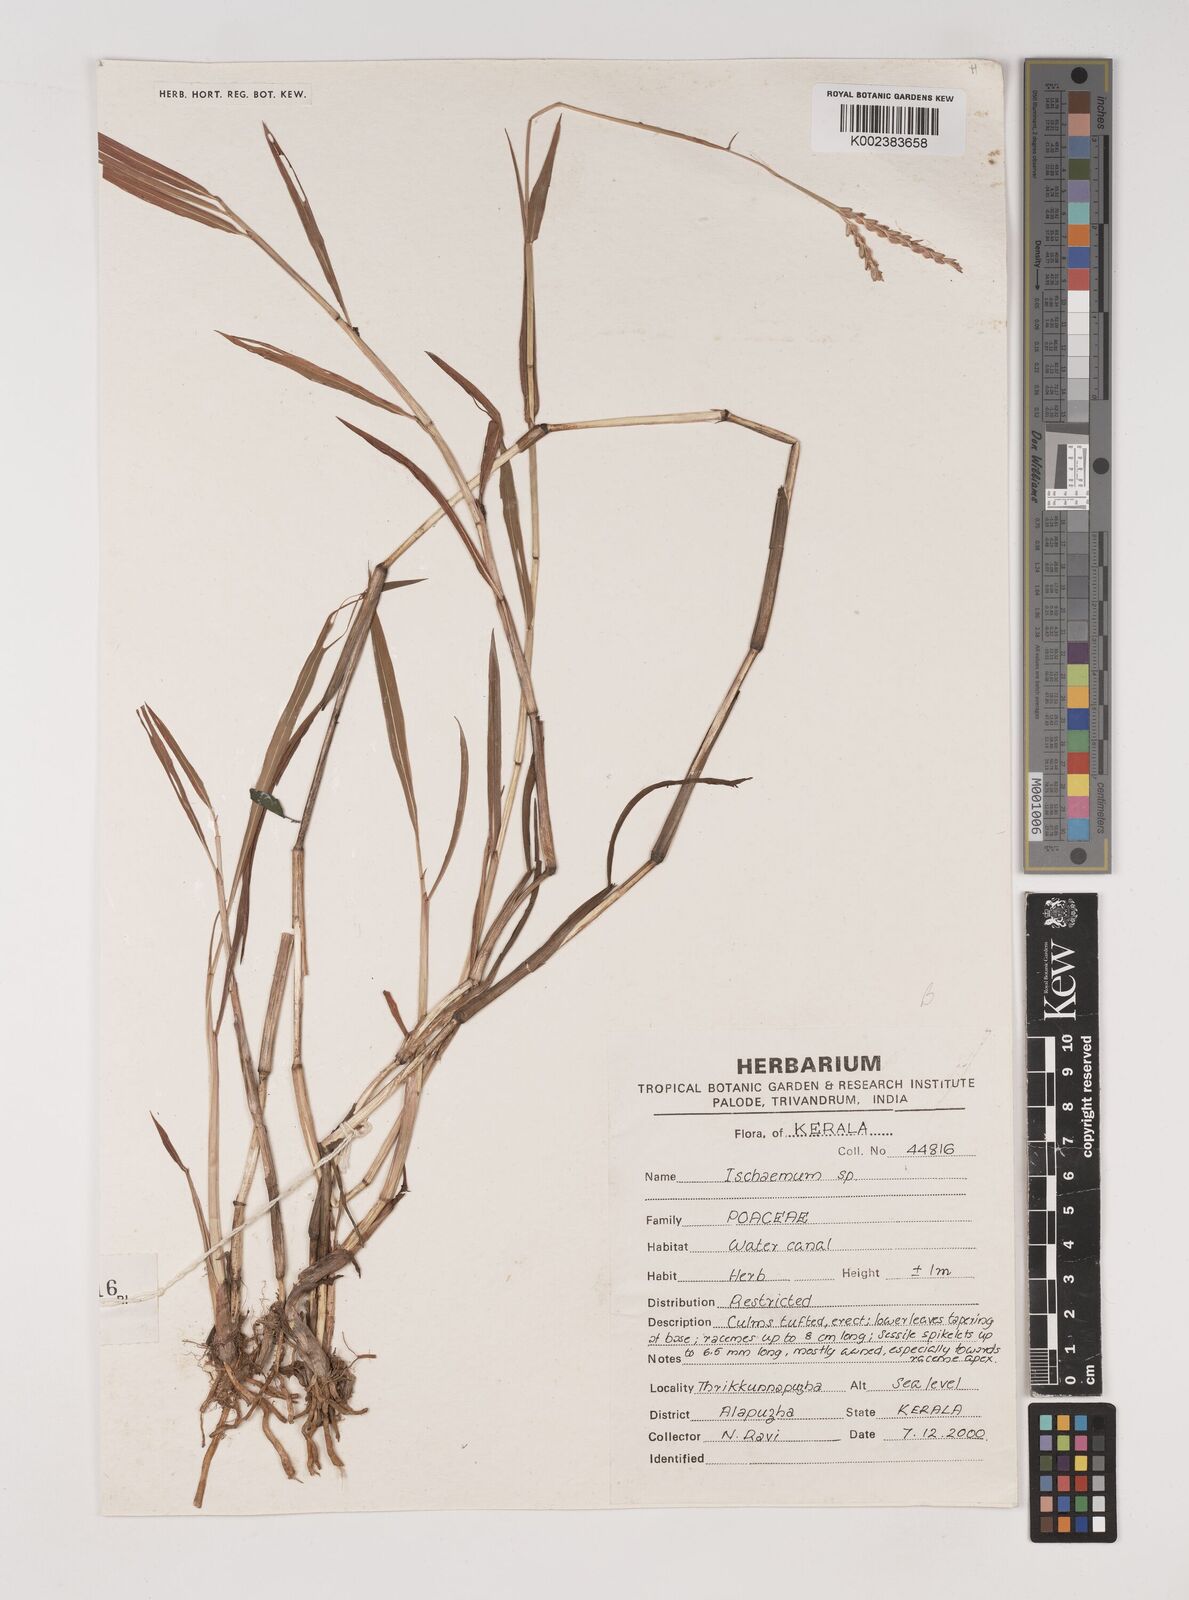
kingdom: Plantae
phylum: Tracheophyta
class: Liliopsida
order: Poales
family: Poaceae
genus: Ischaemum
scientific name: Ischaemum
